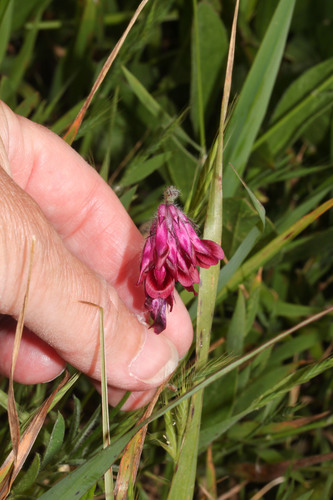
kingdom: Plantae
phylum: Tracheophyta
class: Magnoliopsida
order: Fabales
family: Fabaceae
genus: Vicia
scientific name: Vicia benghalensis
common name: Purple vetch
